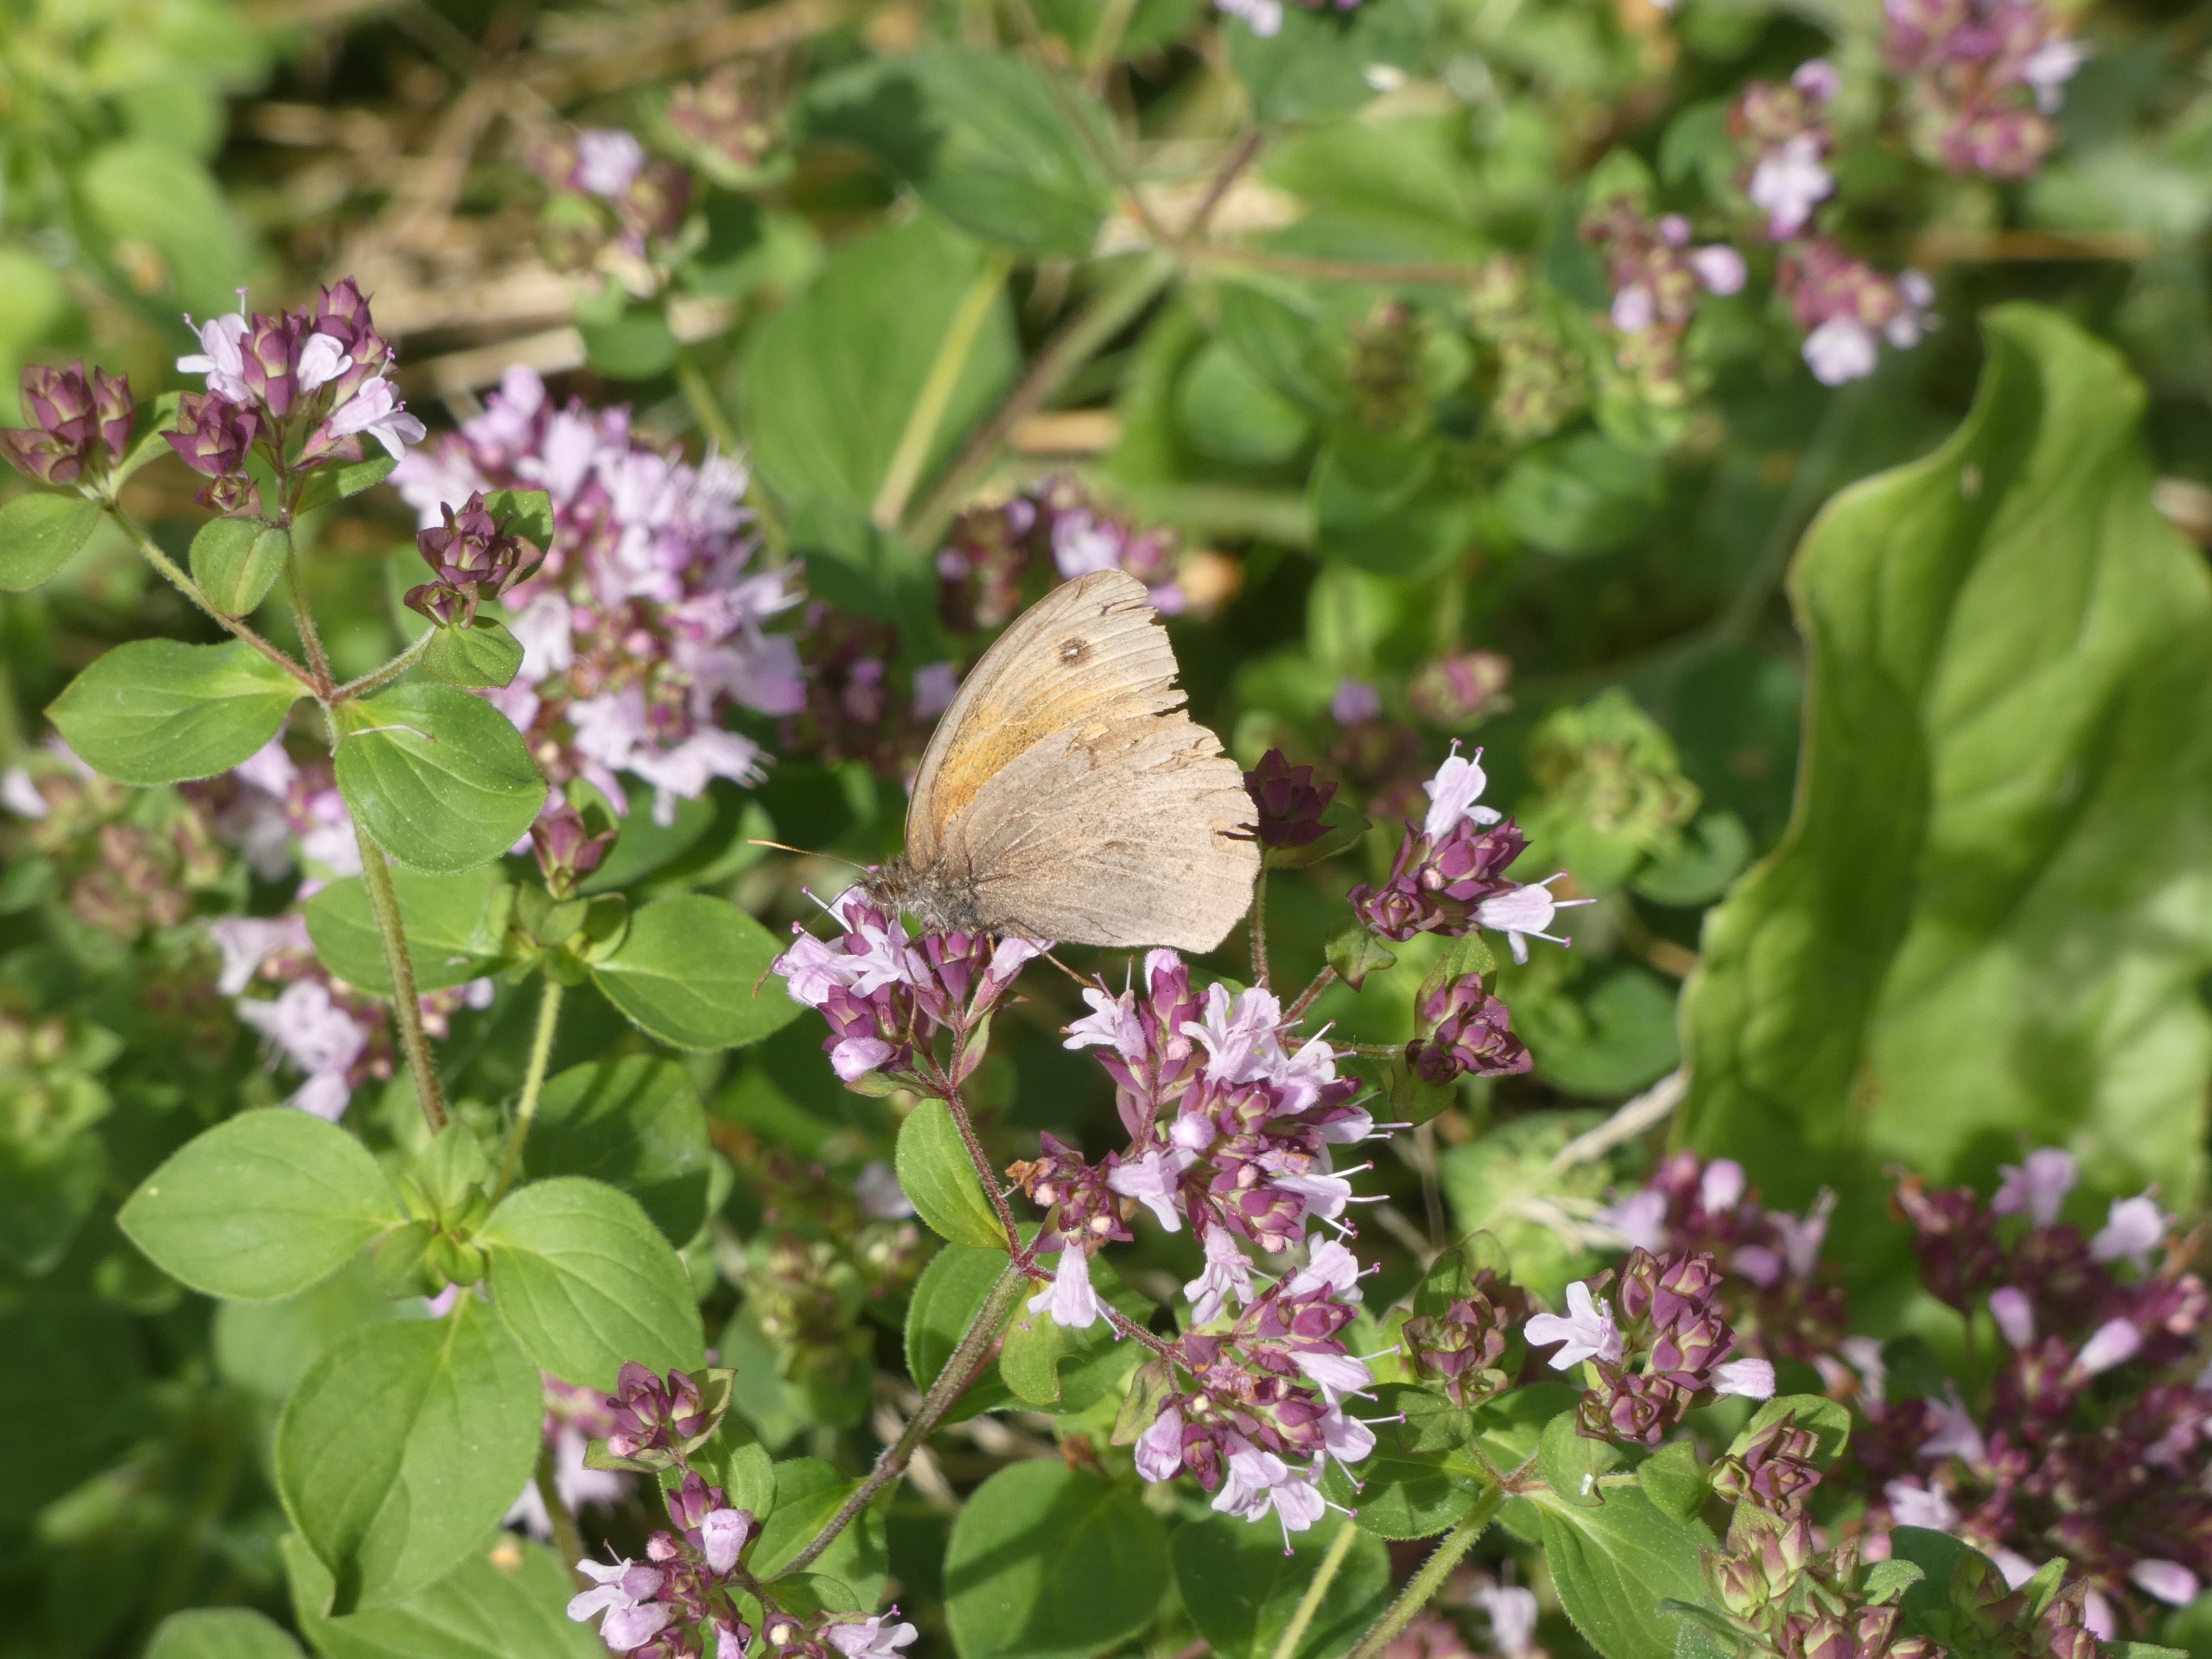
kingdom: Animalia
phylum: Arthropoda
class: Insecta
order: Lepidoptera
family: Nymphalidae
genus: Maniola
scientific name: Maniola jurtina
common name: Græsrandøje
